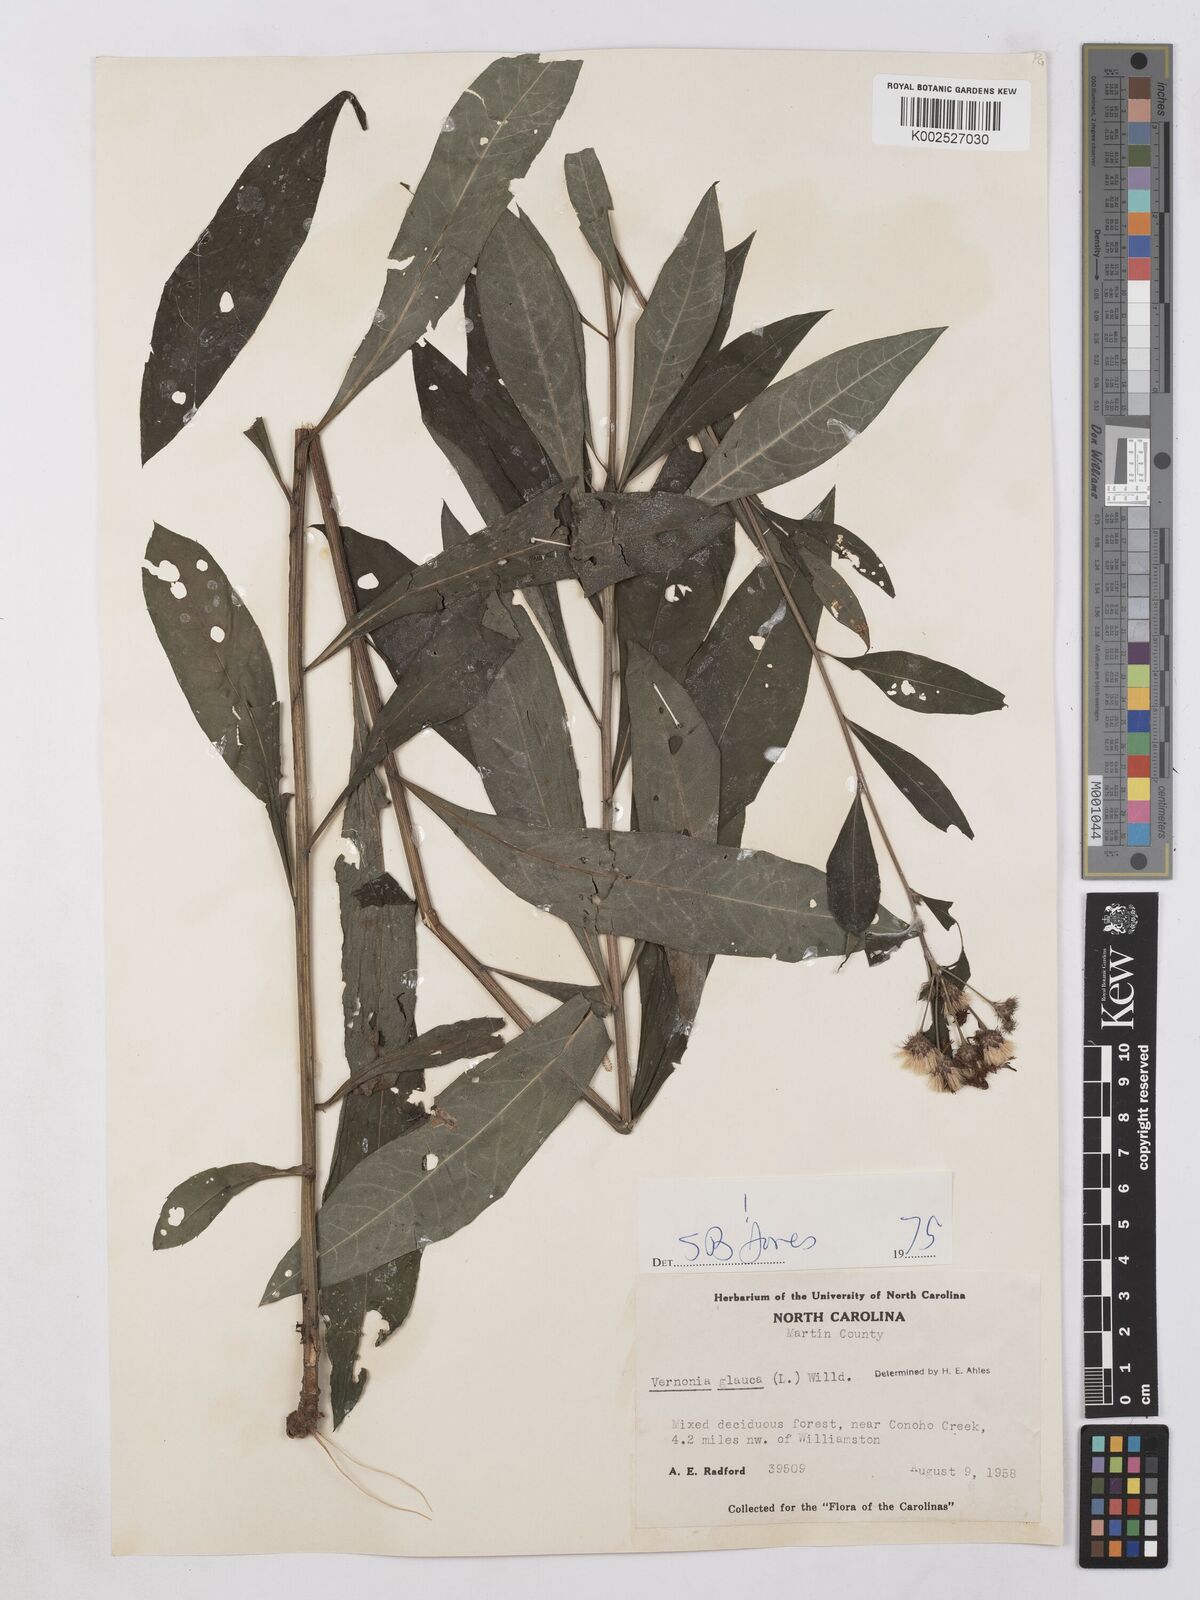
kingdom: Plantae
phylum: Tracheophyta
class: Magnoliopsida
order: Asterales
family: Asteraceae
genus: Vernonia
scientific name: Vernonia glauca
